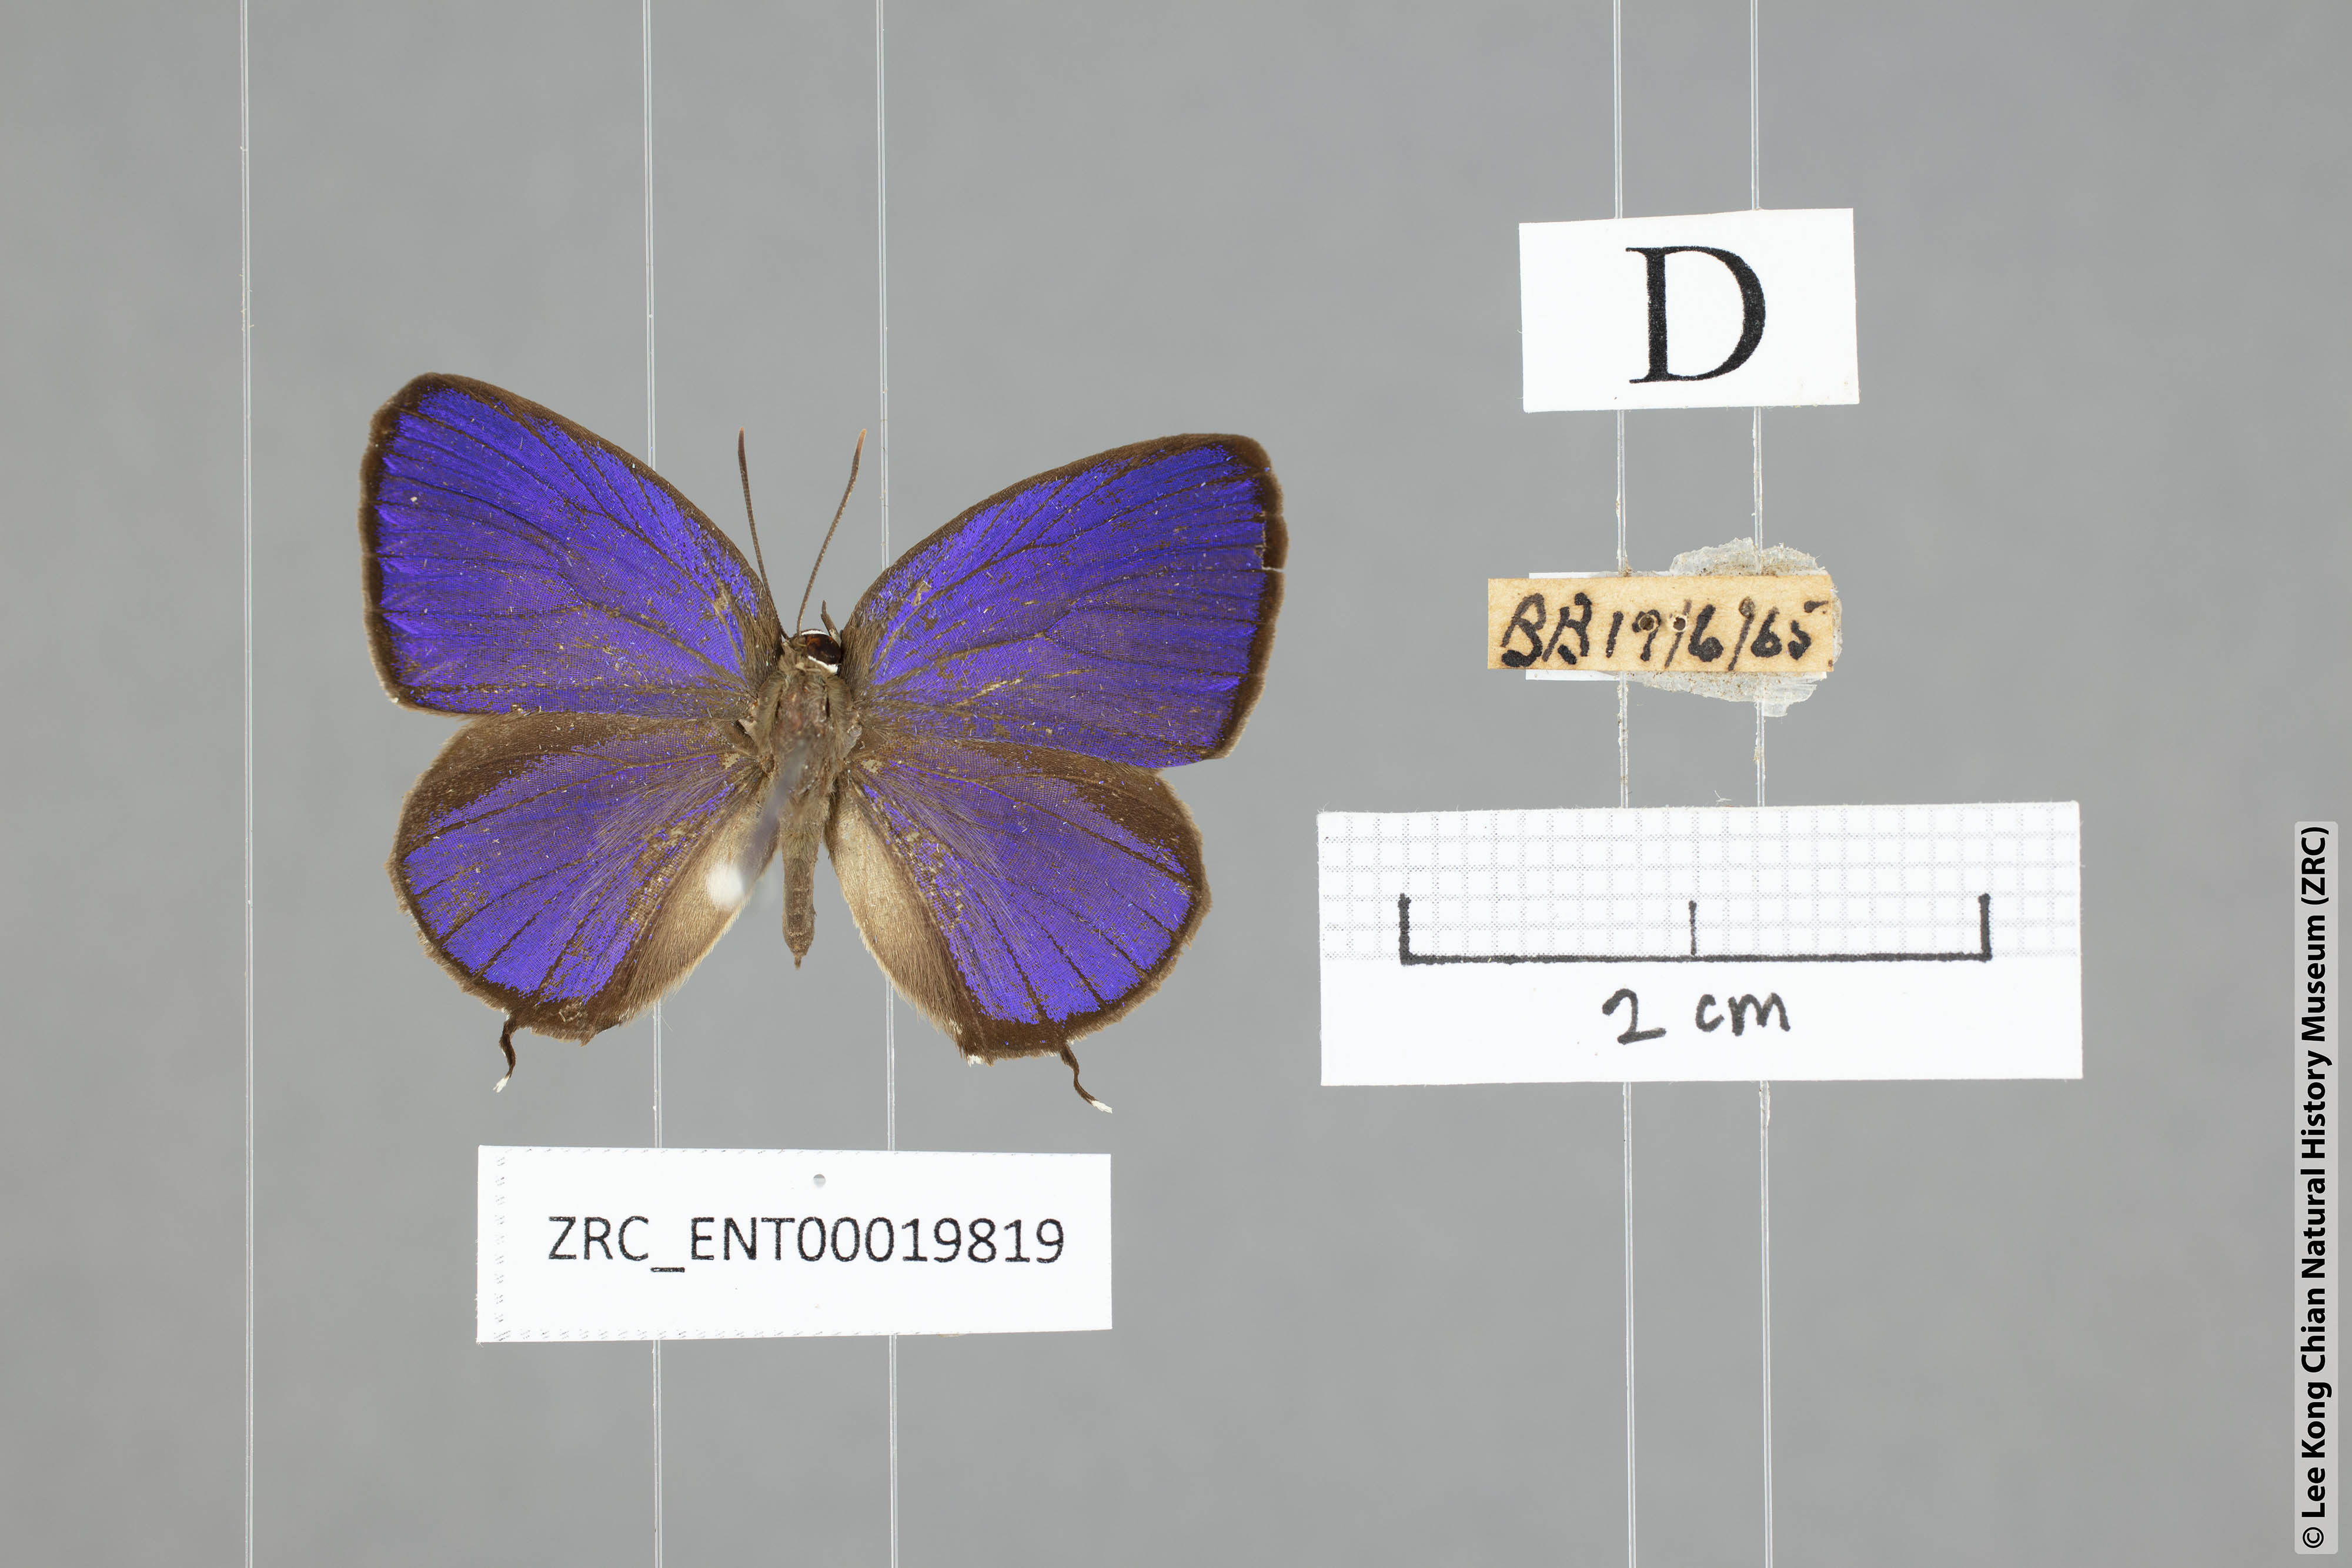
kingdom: Animalia
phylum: Arthropoda
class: Insecta
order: Lepidoptera
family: Lycaenidae
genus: Arhopala
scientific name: Arhopala pseudomuta
